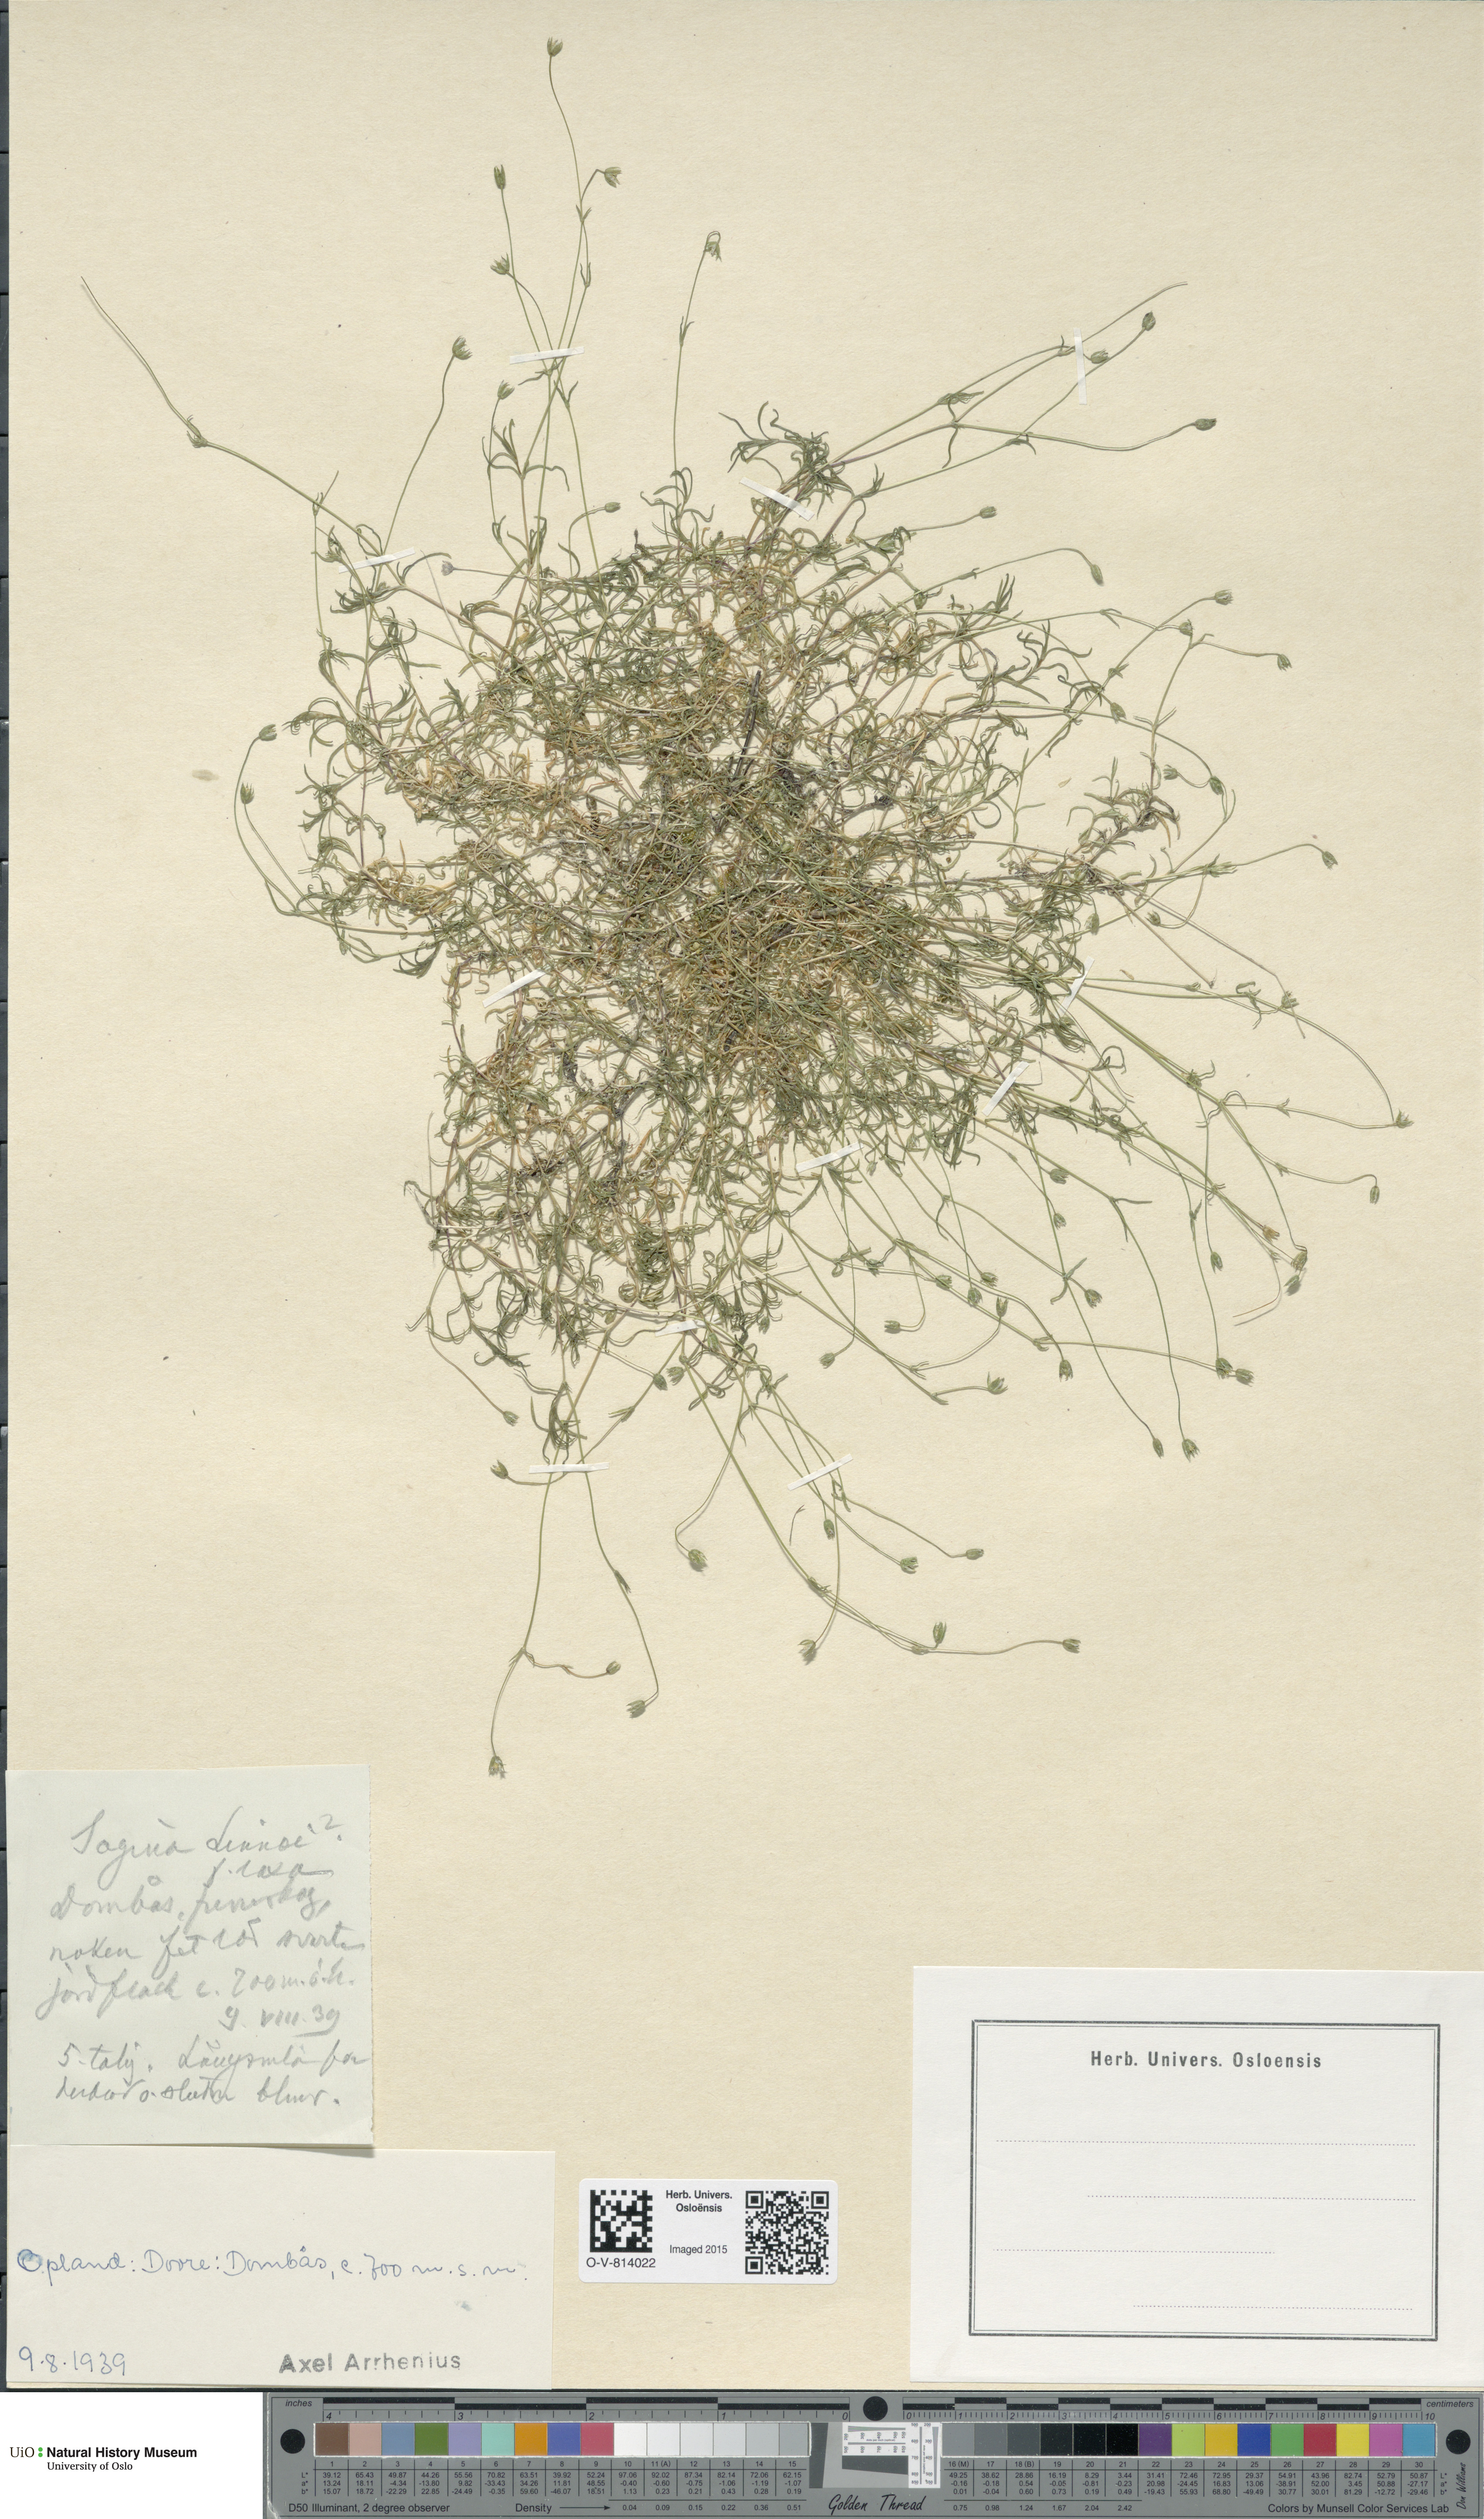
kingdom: Plantae
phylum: Tracheophyta
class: Magnoliopsida
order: Caryophyllales
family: Caryophyllaceae
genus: Sagina
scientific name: Sagina saginoides
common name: Alpine pearlwort
